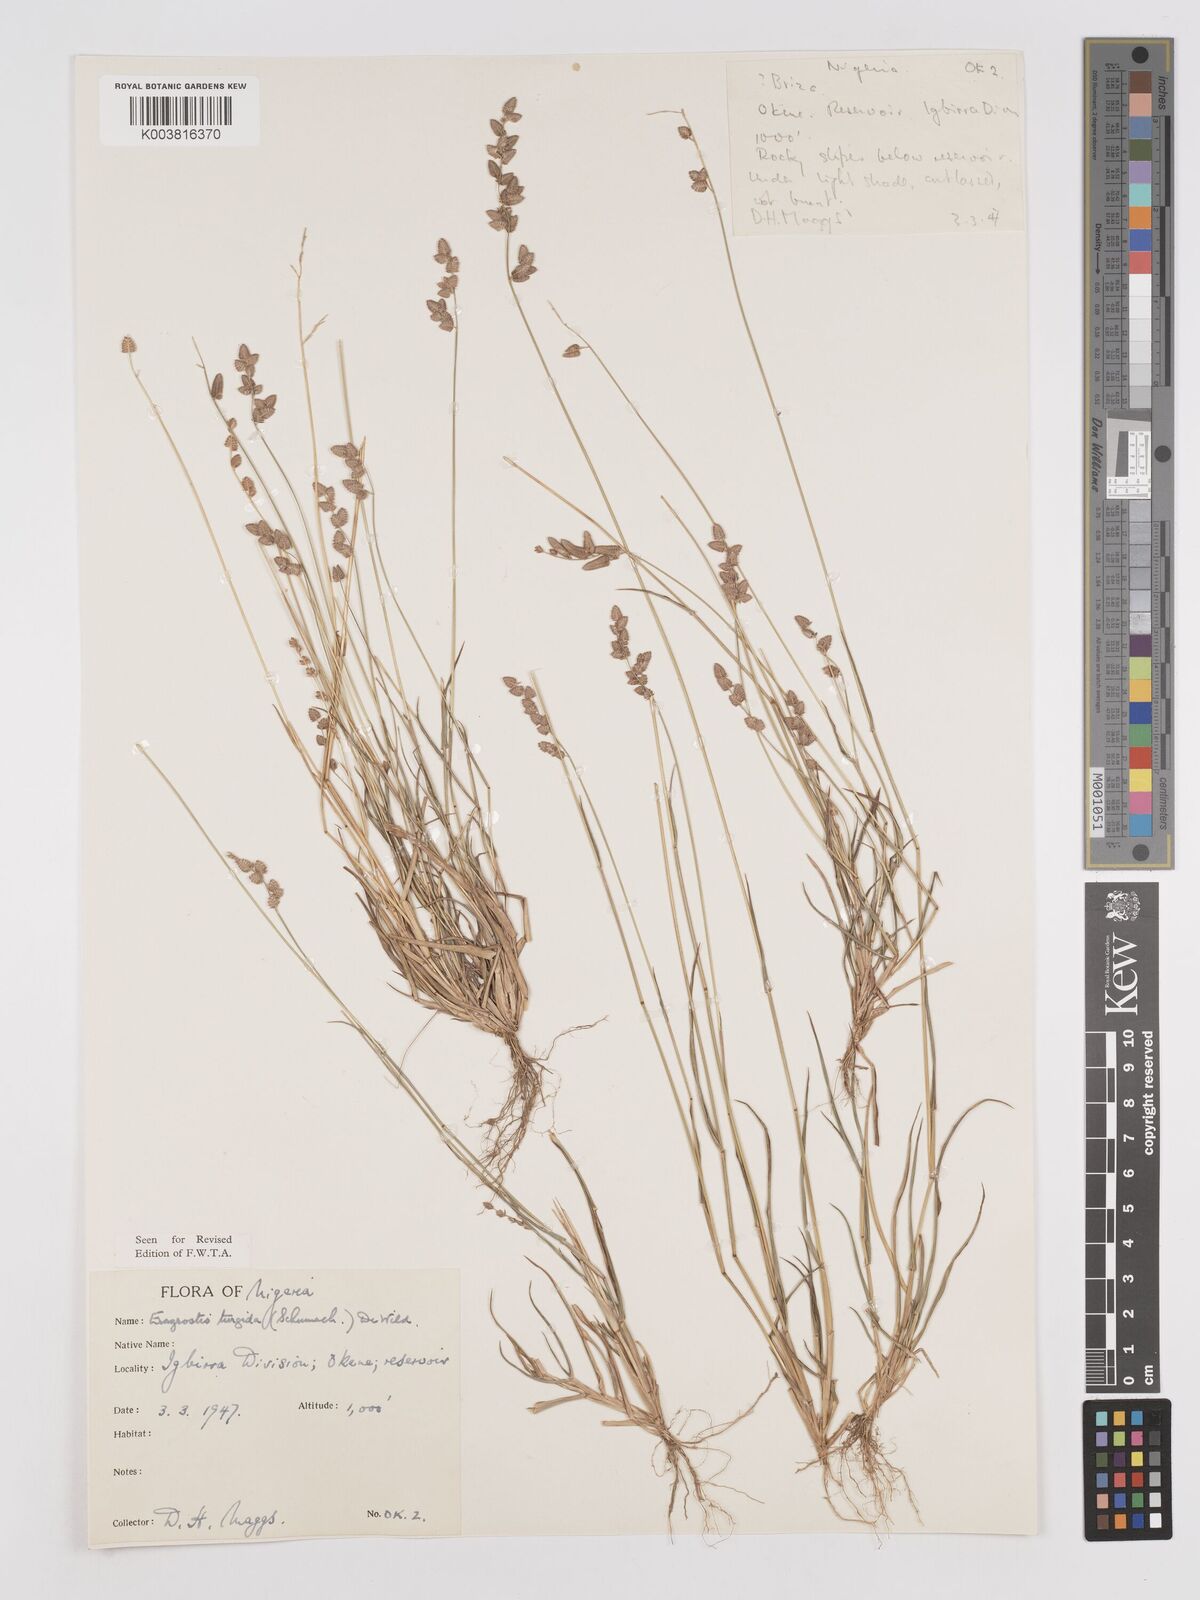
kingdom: Plantae
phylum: Tracheophyta
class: Liliopsida
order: Poales
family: Poaceae
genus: Eragrostis
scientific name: Eragrostis turgida
